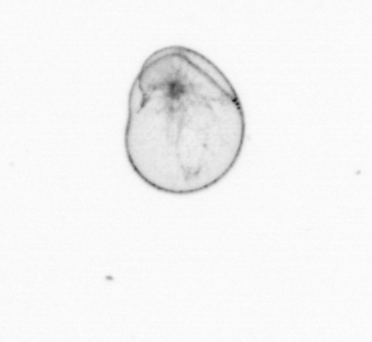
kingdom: Chromista
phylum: Myzozoa
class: Dinophyceae
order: Noctilucales
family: Noctilucaceae
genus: Noctiluca
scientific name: Noctiluca scintillans
